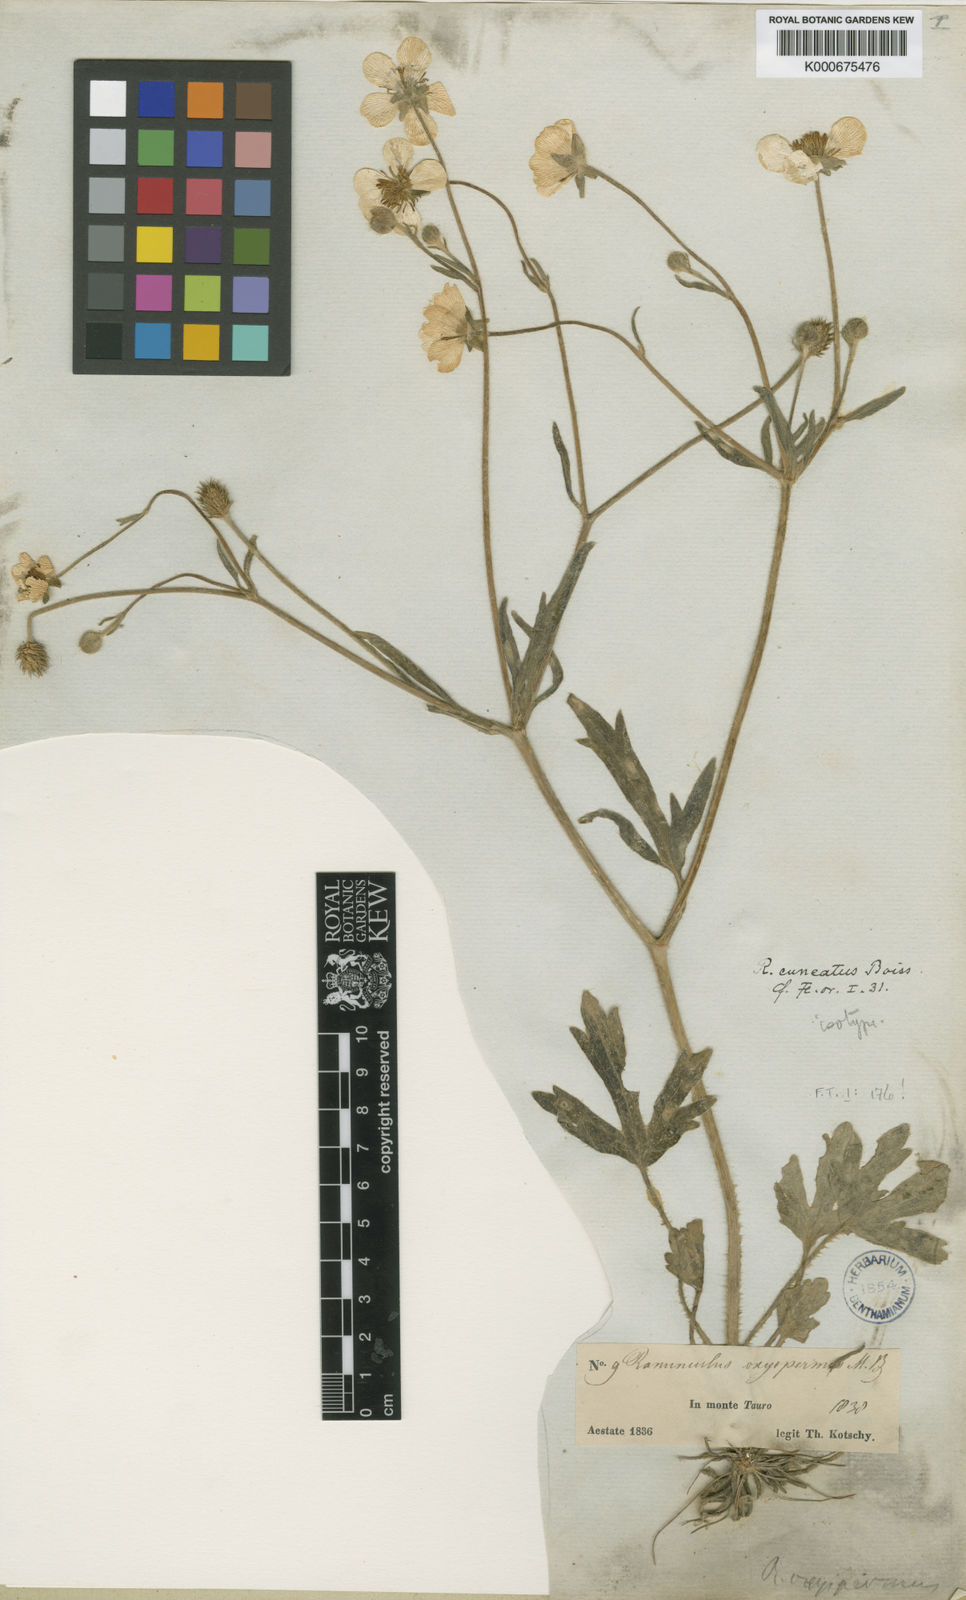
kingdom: Plantae
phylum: Tracheophyta
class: Magnoliopsida
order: Ranunculales
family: Ranunculaceae
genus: Ranunculus
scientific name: Ranunculus neocuneatus
